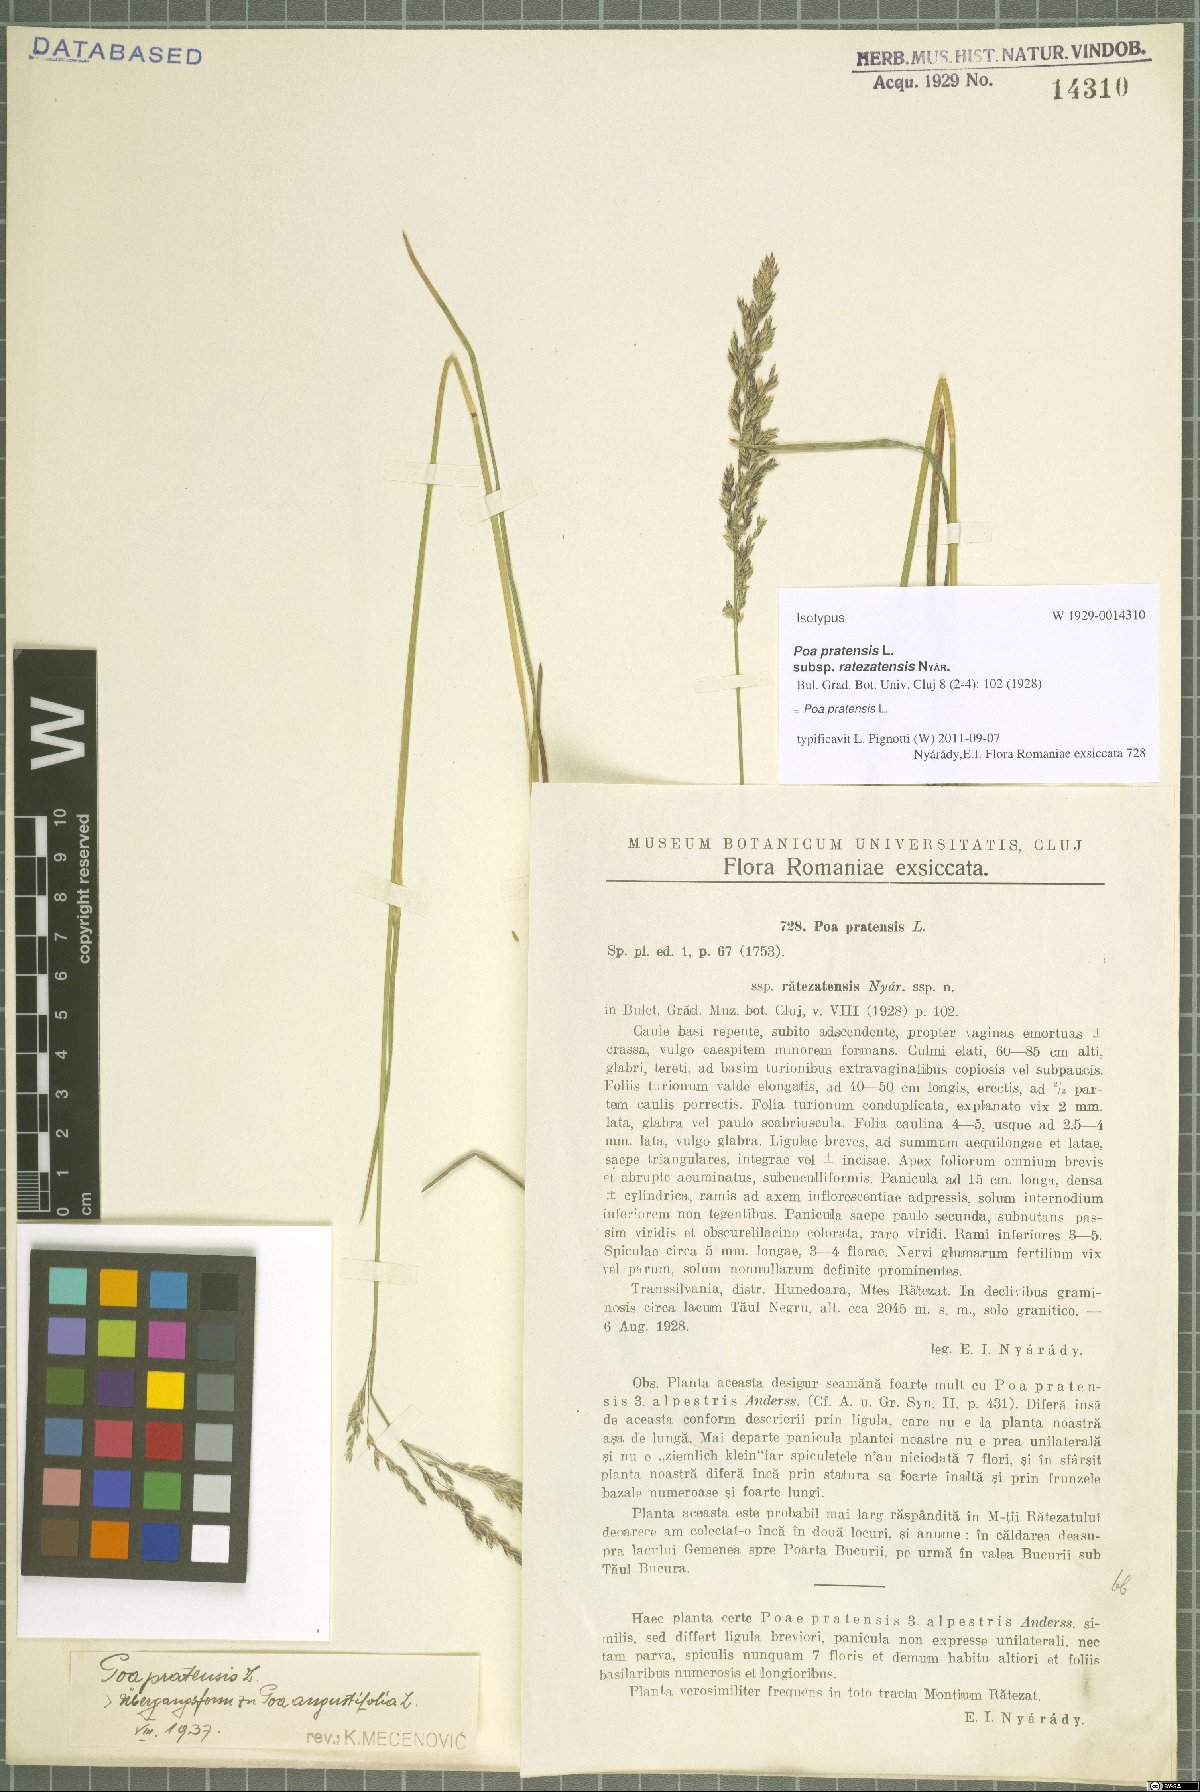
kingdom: Plantae
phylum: Tracheophyta
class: Liliopsida
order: Poales
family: Poaceae
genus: Poa
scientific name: Poa pratensis
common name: Kentucky bluegrass
